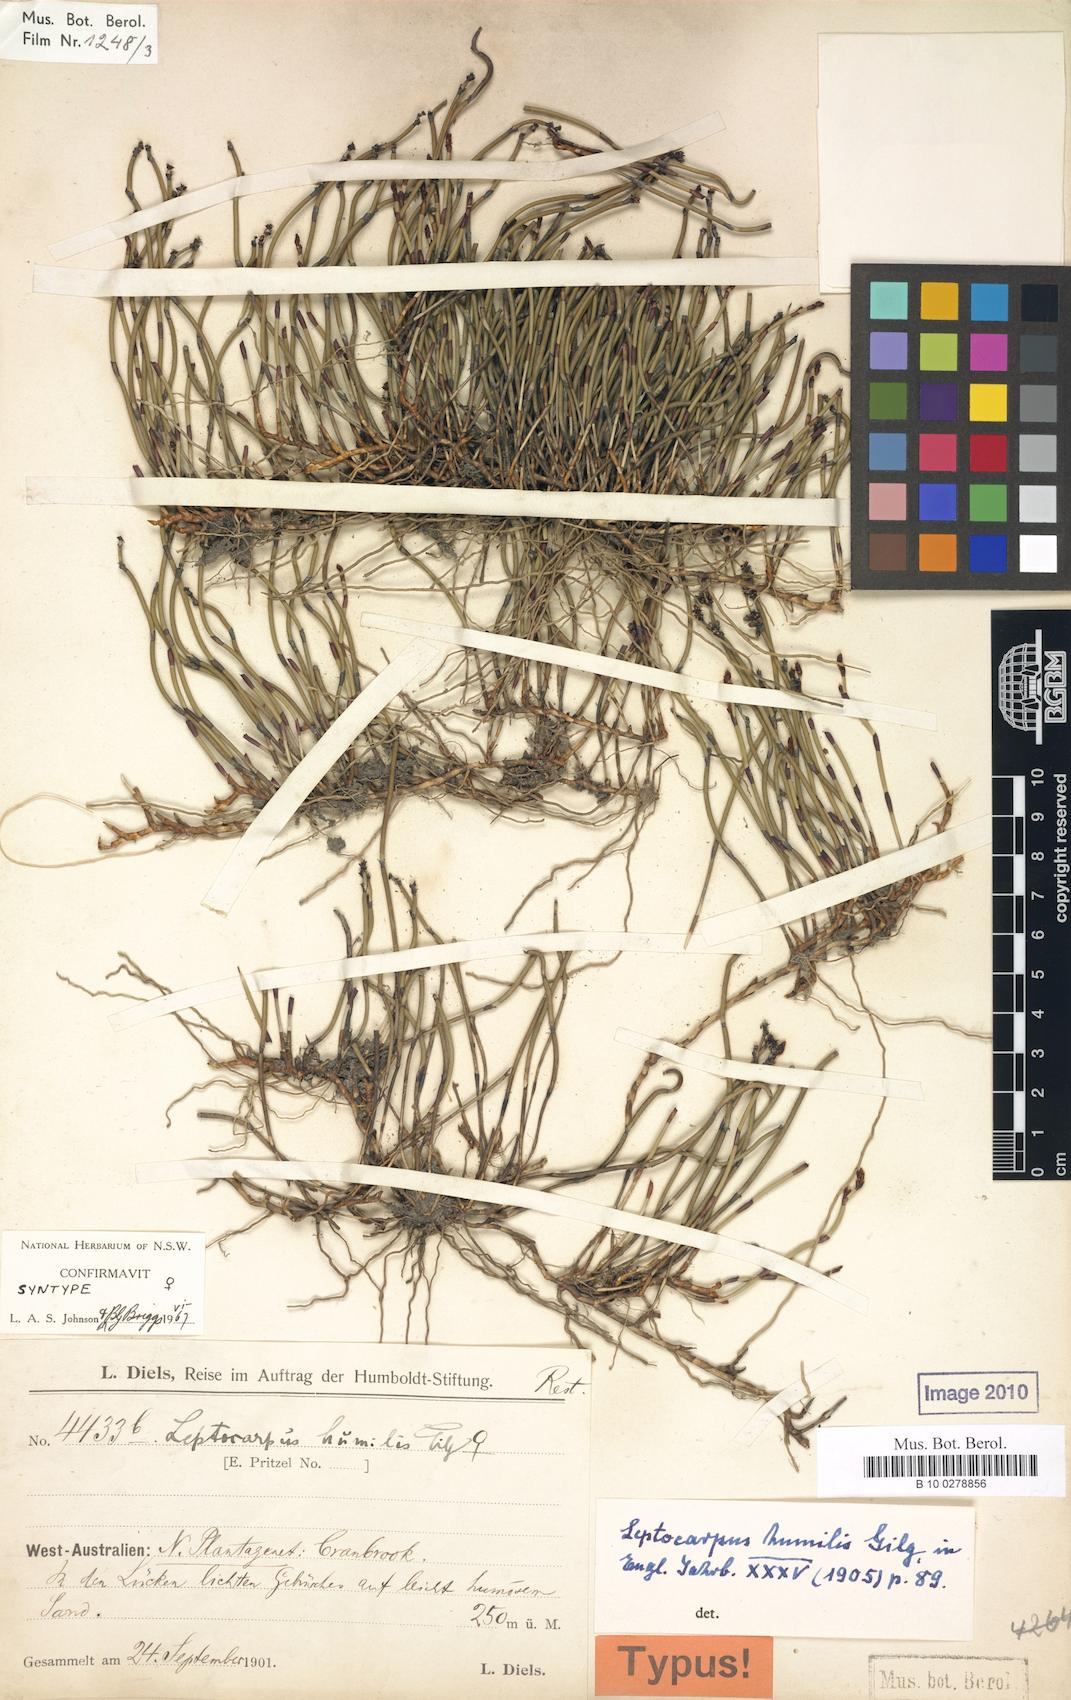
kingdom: Plantae
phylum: Tracheophyta
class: Liliopsida
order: Poales
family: Restionaceae
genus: Leptocarpus
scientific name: Leptocarpus humilis
